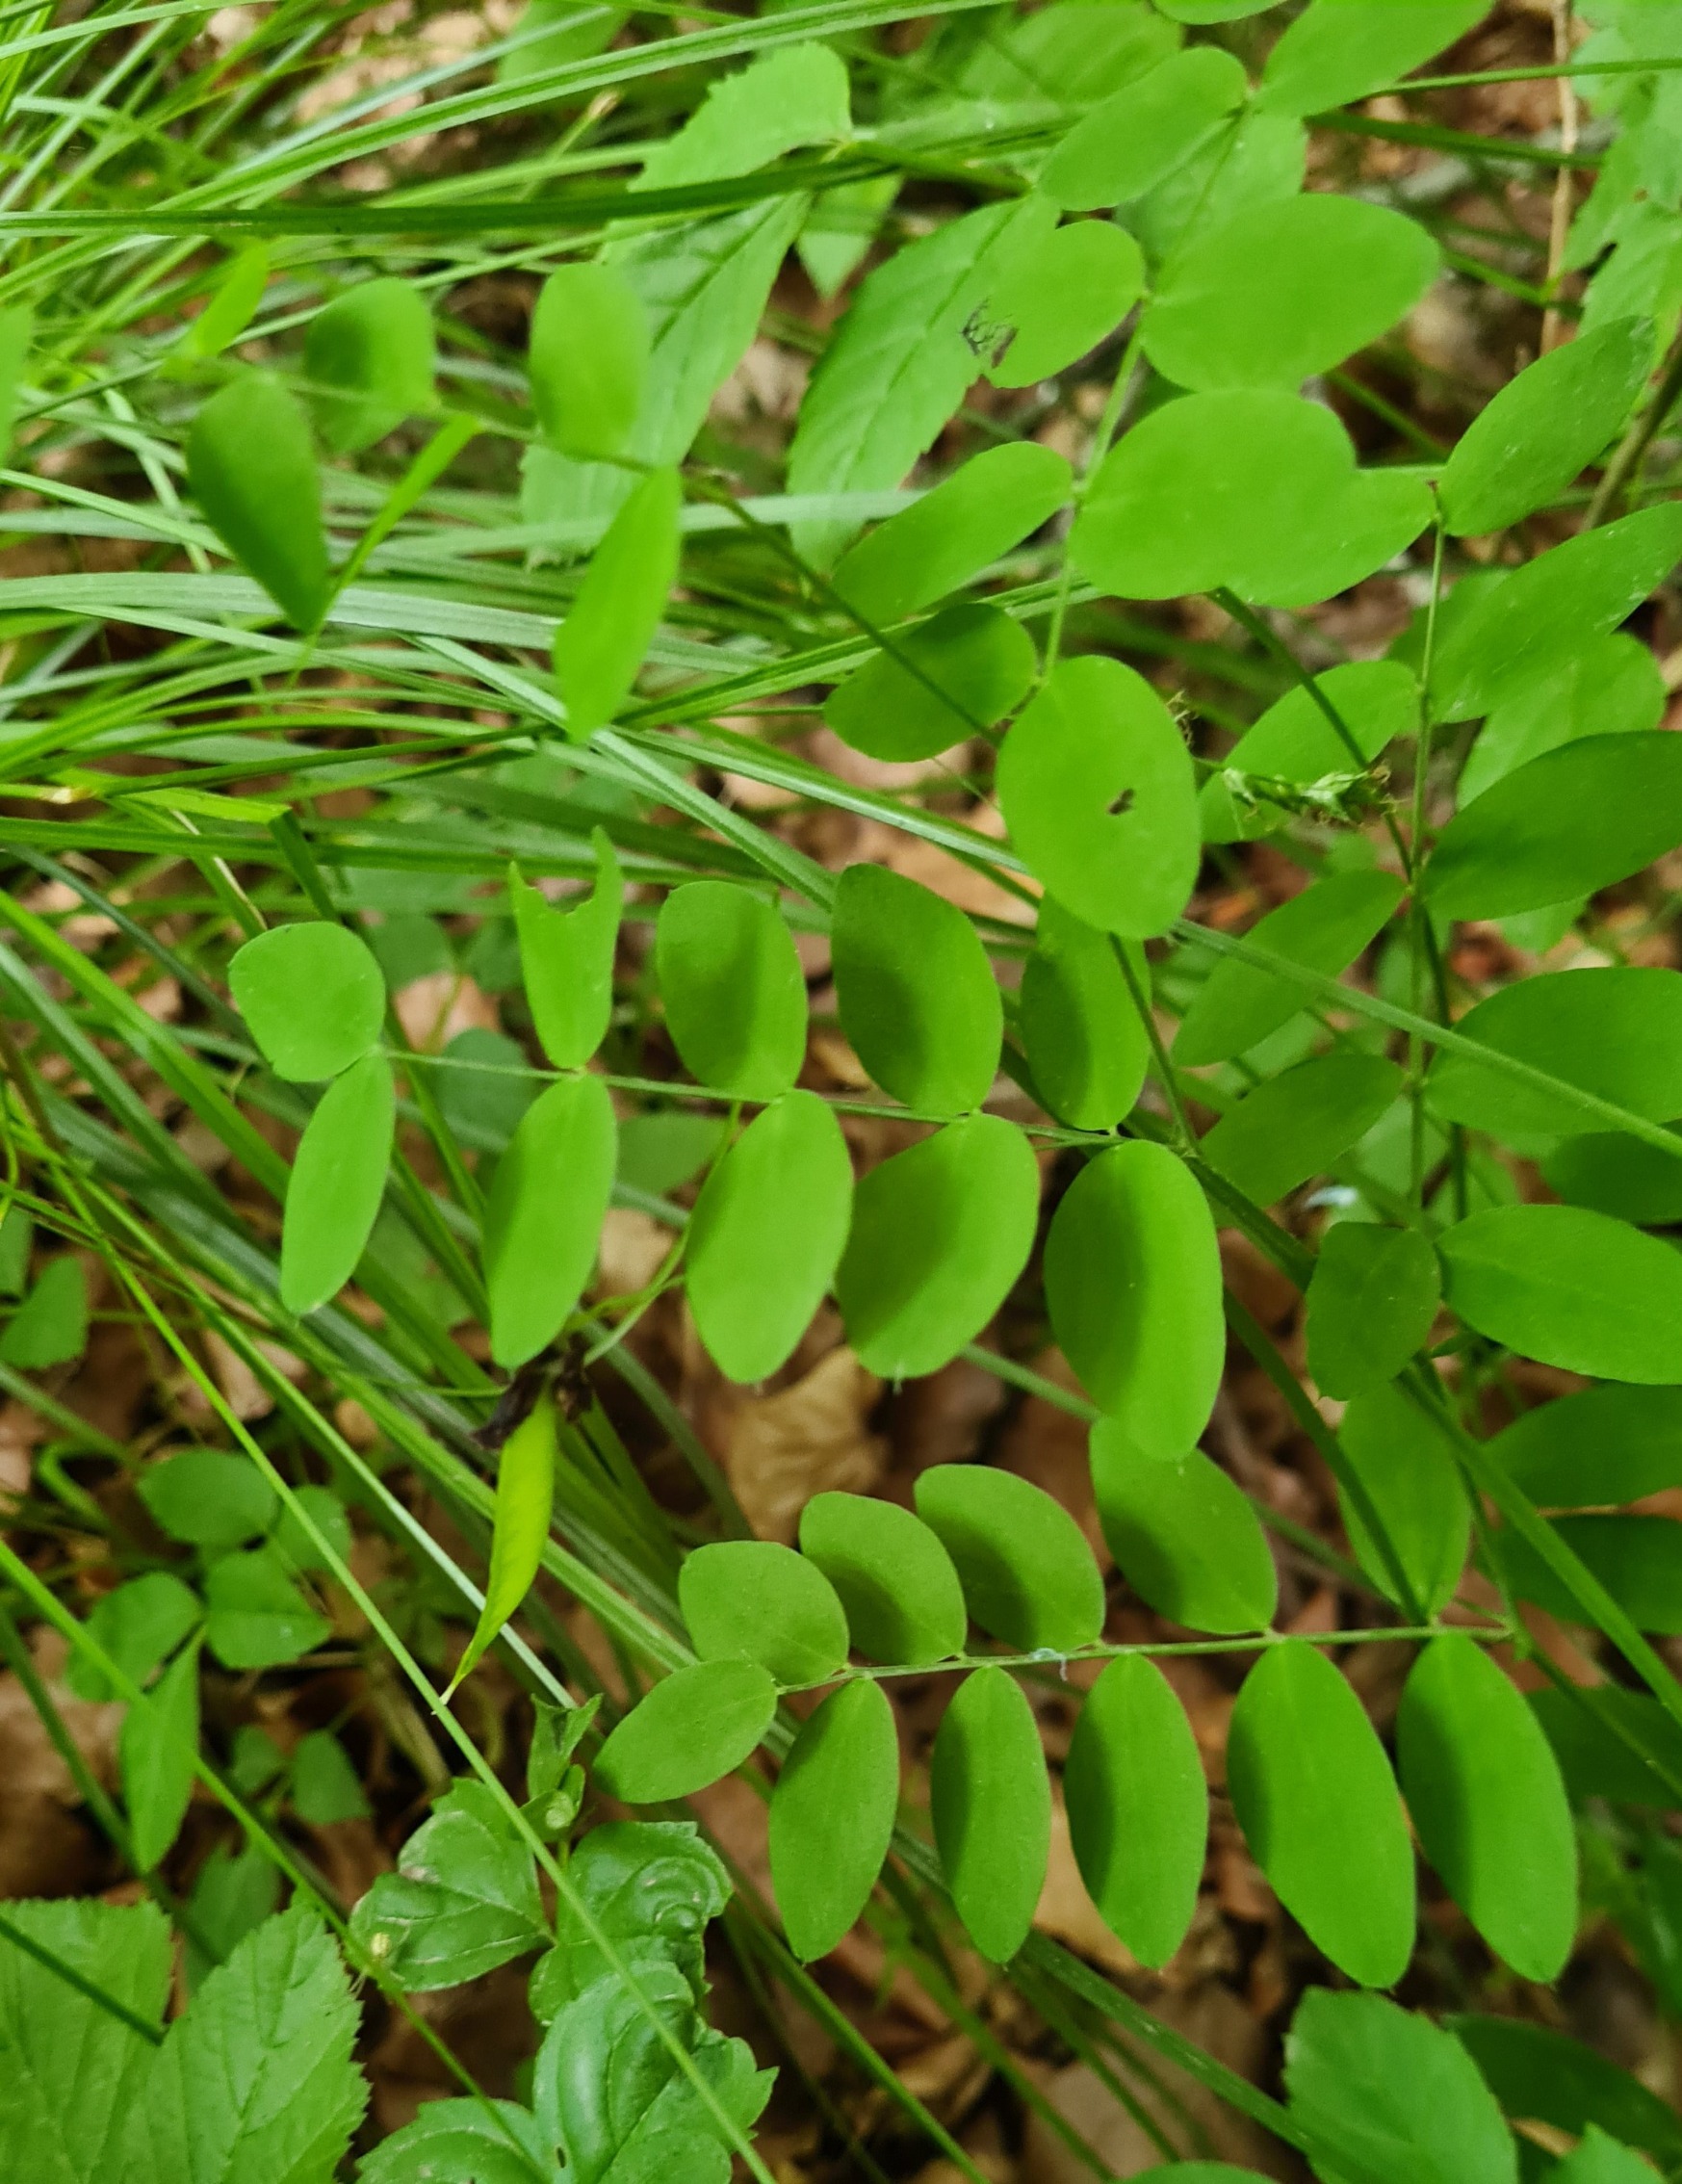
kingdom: Plantae
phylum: Tracheophyta
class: Magnoliopsida
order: Fabales
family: Fabaceae
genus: Lathyrus
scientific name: Lathyrus niger
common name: Sort fladbælg
